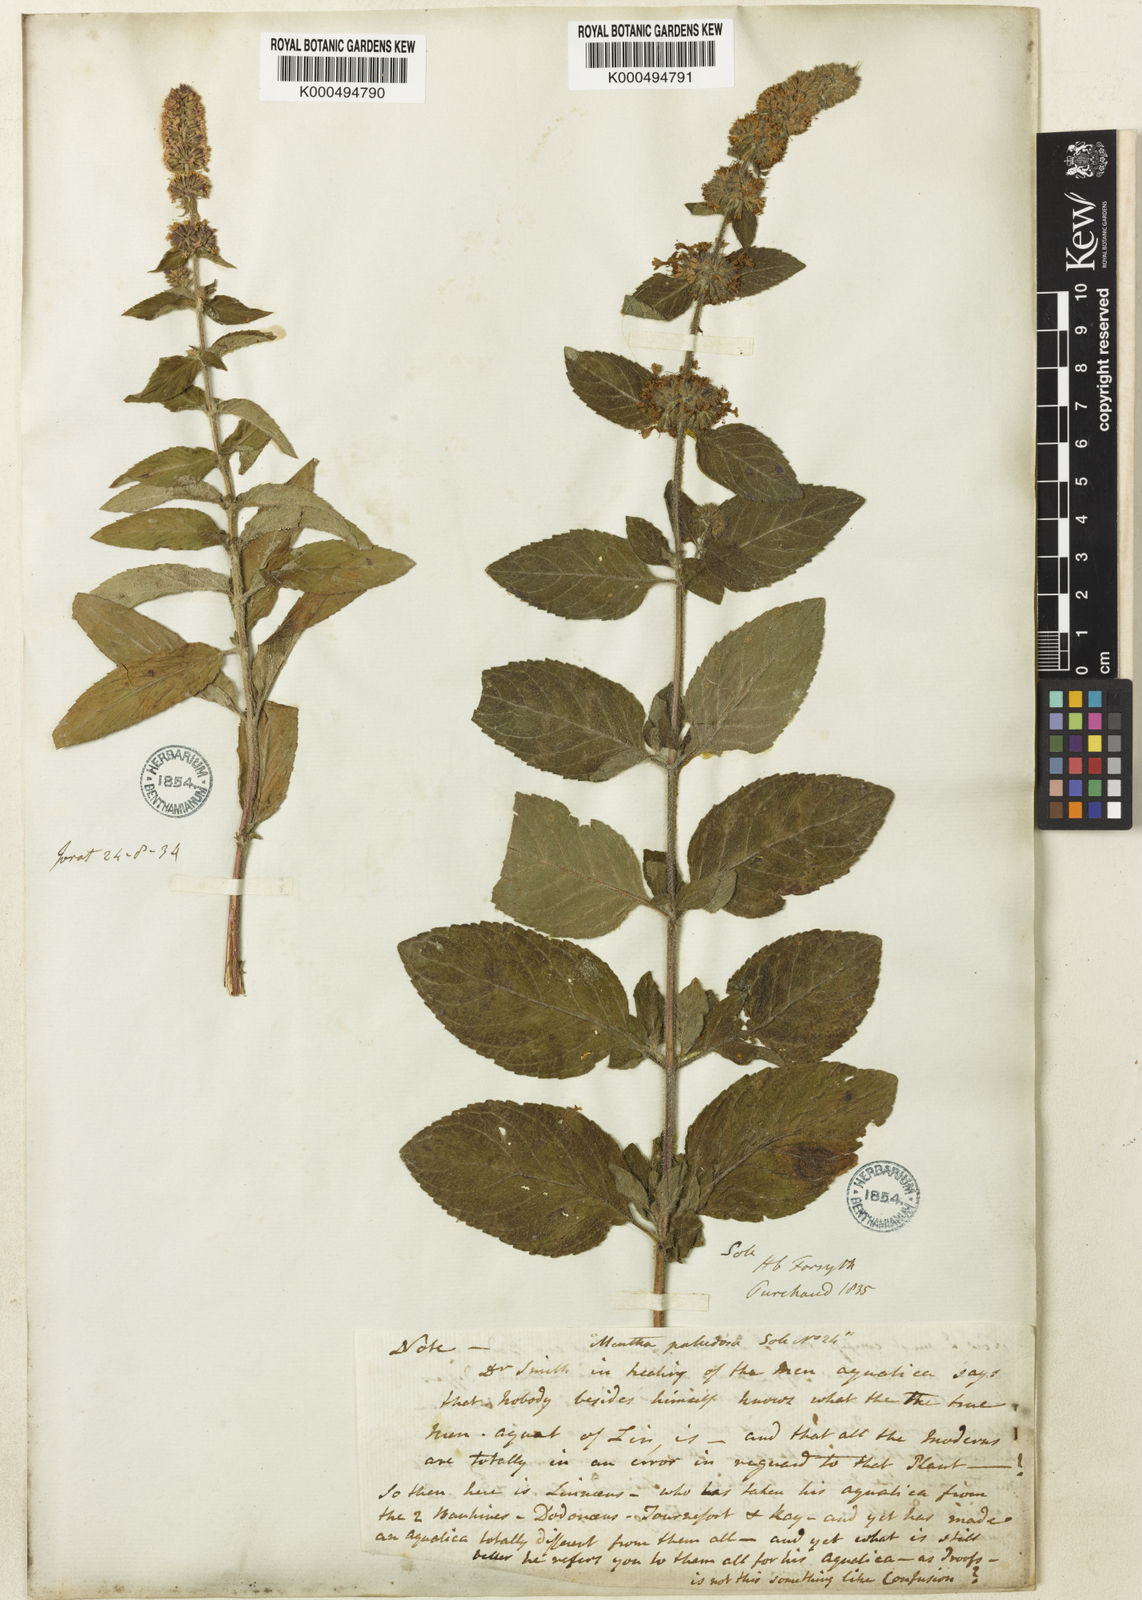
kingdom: Plantae
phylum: Tracheophyta
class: Magnoliopsida
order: Lamiales
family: Lamiaceae
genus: Mentha
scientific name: Mentha verticillata
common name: Mint
